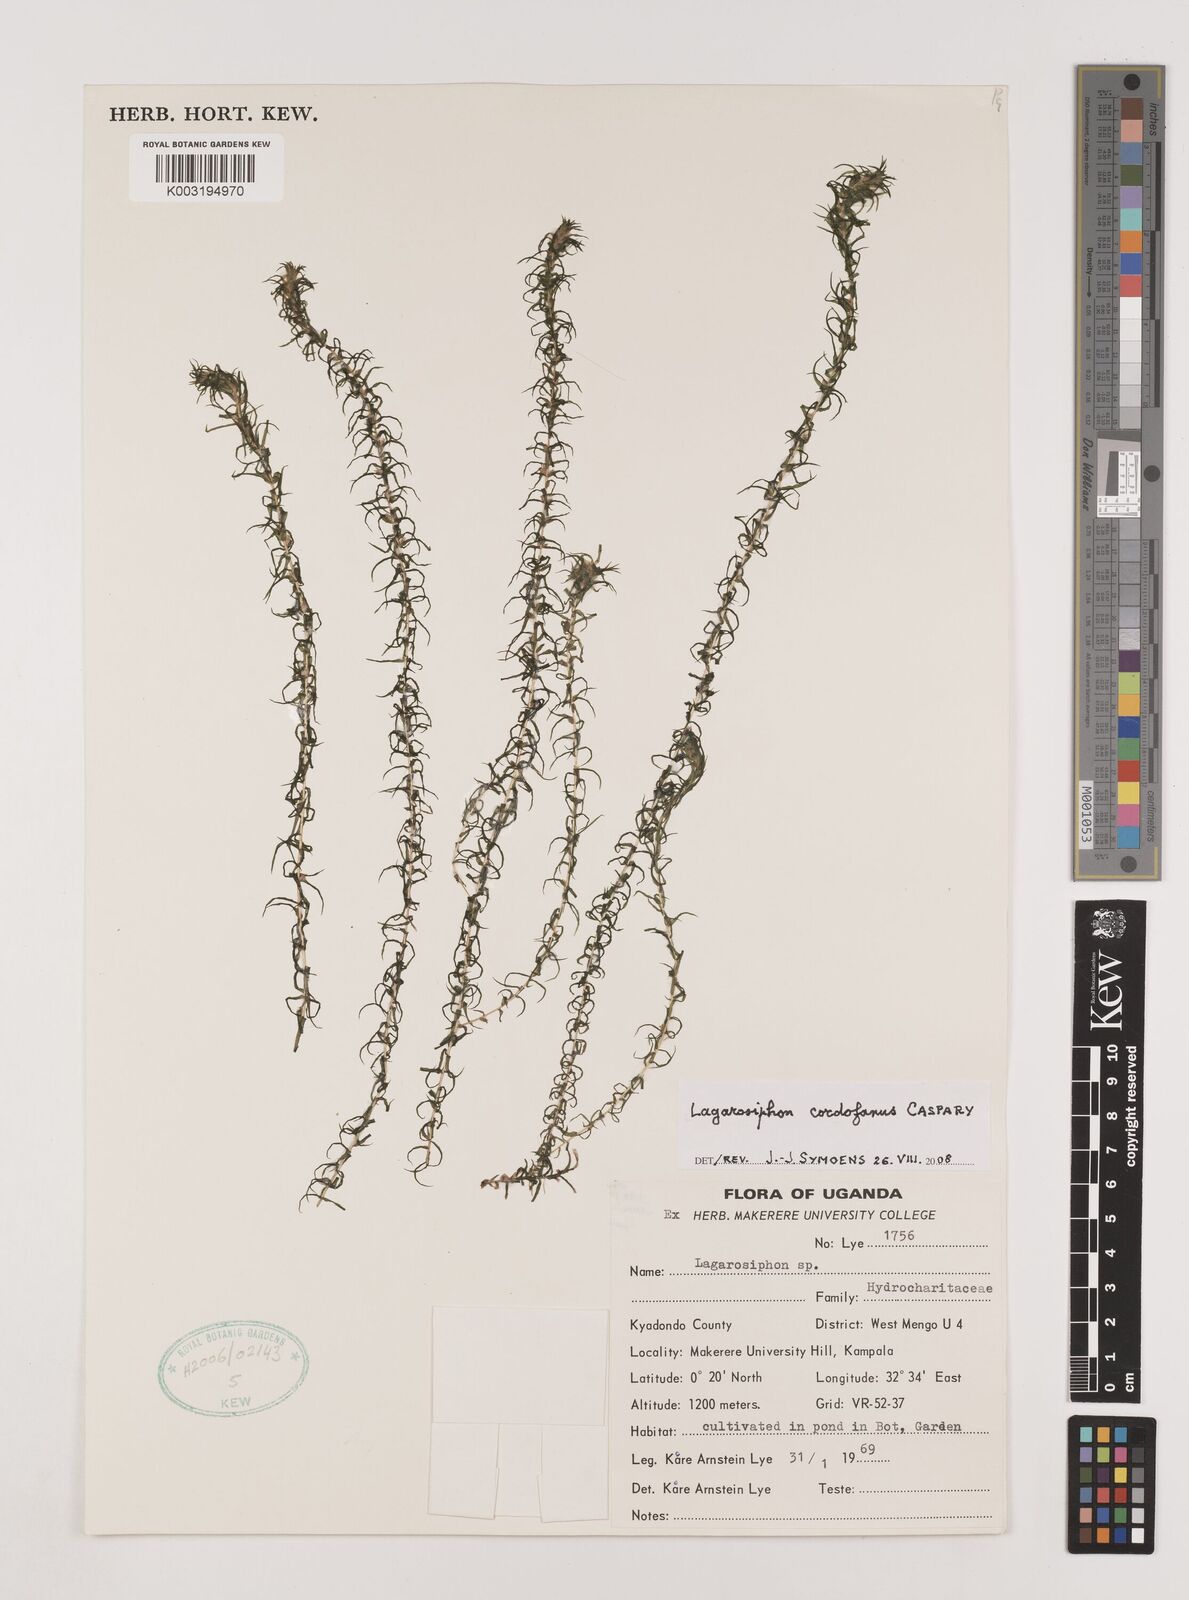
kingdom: Plantae
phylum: Tracheophyta
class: Liliopsida
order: Alismatales
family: Hydrocharitaceae
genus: Lagarosiphon
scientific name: Lagarosiphon cordofanus
